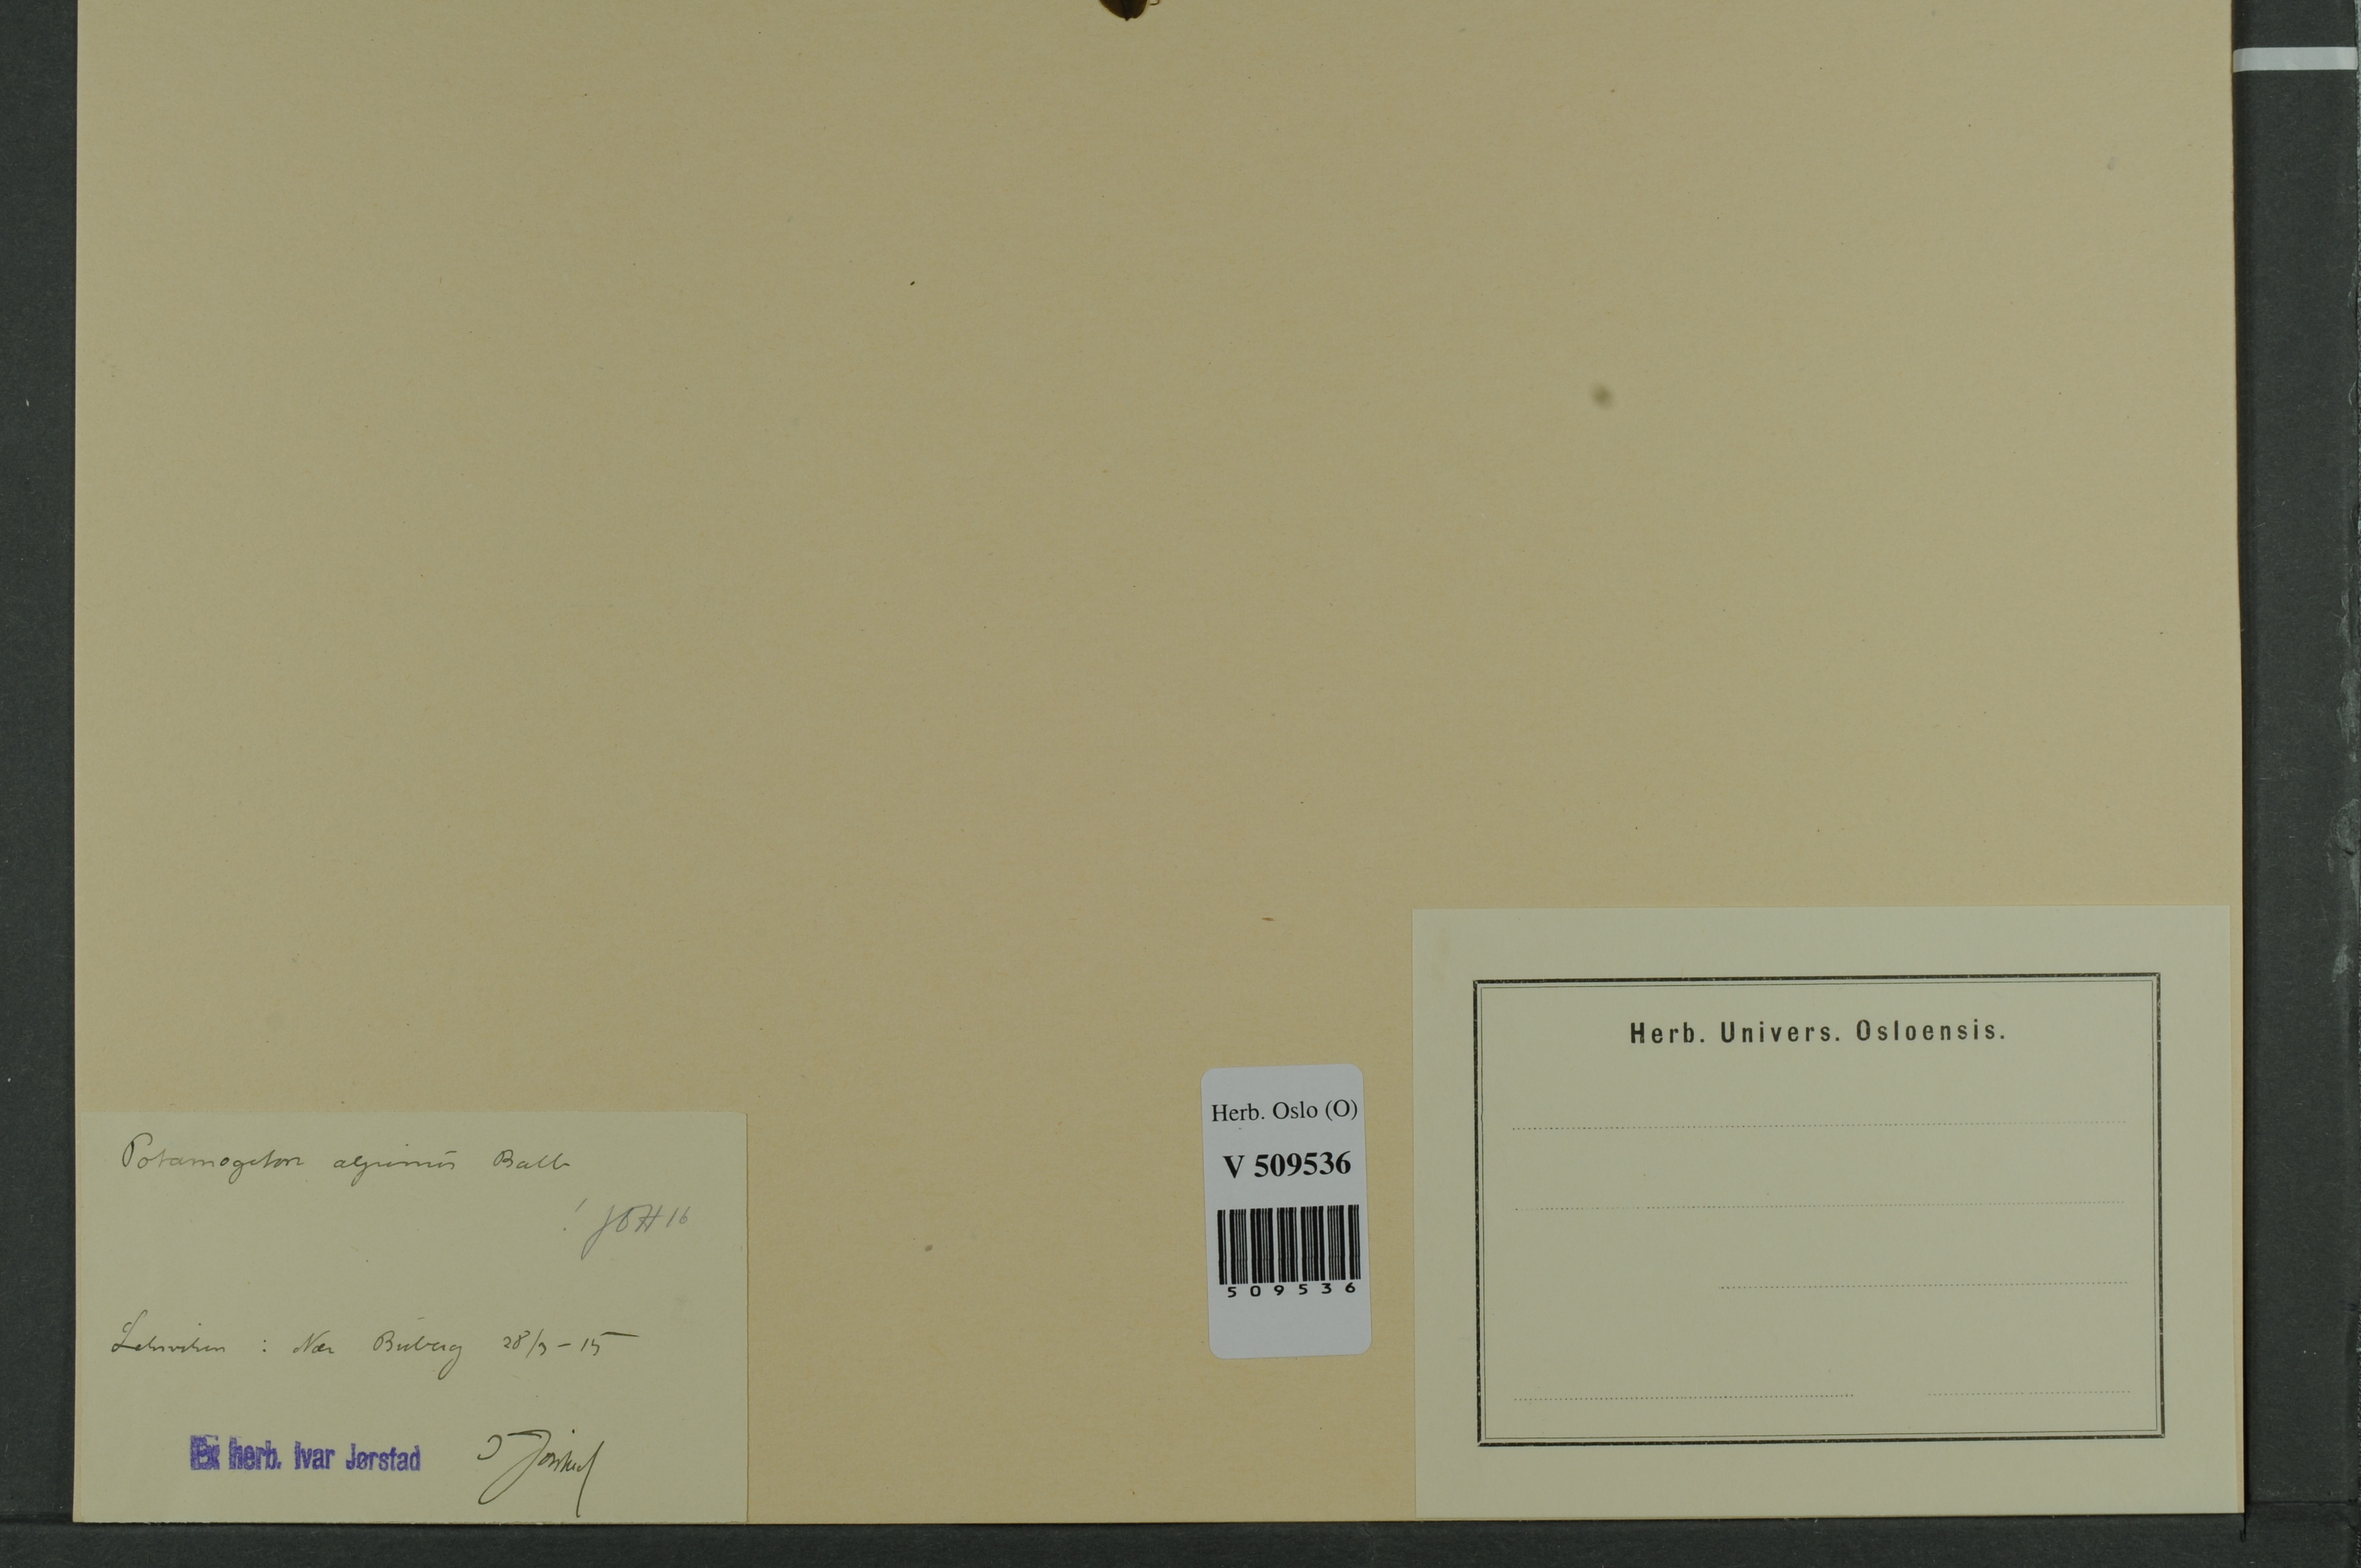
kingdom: Plantae
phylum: Tracheophyta
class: Liliopsida
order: Alismatales
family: Potamogetonaceae
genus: Potamogeton
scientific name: Potamogeton alpinus
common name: Red pondweed
